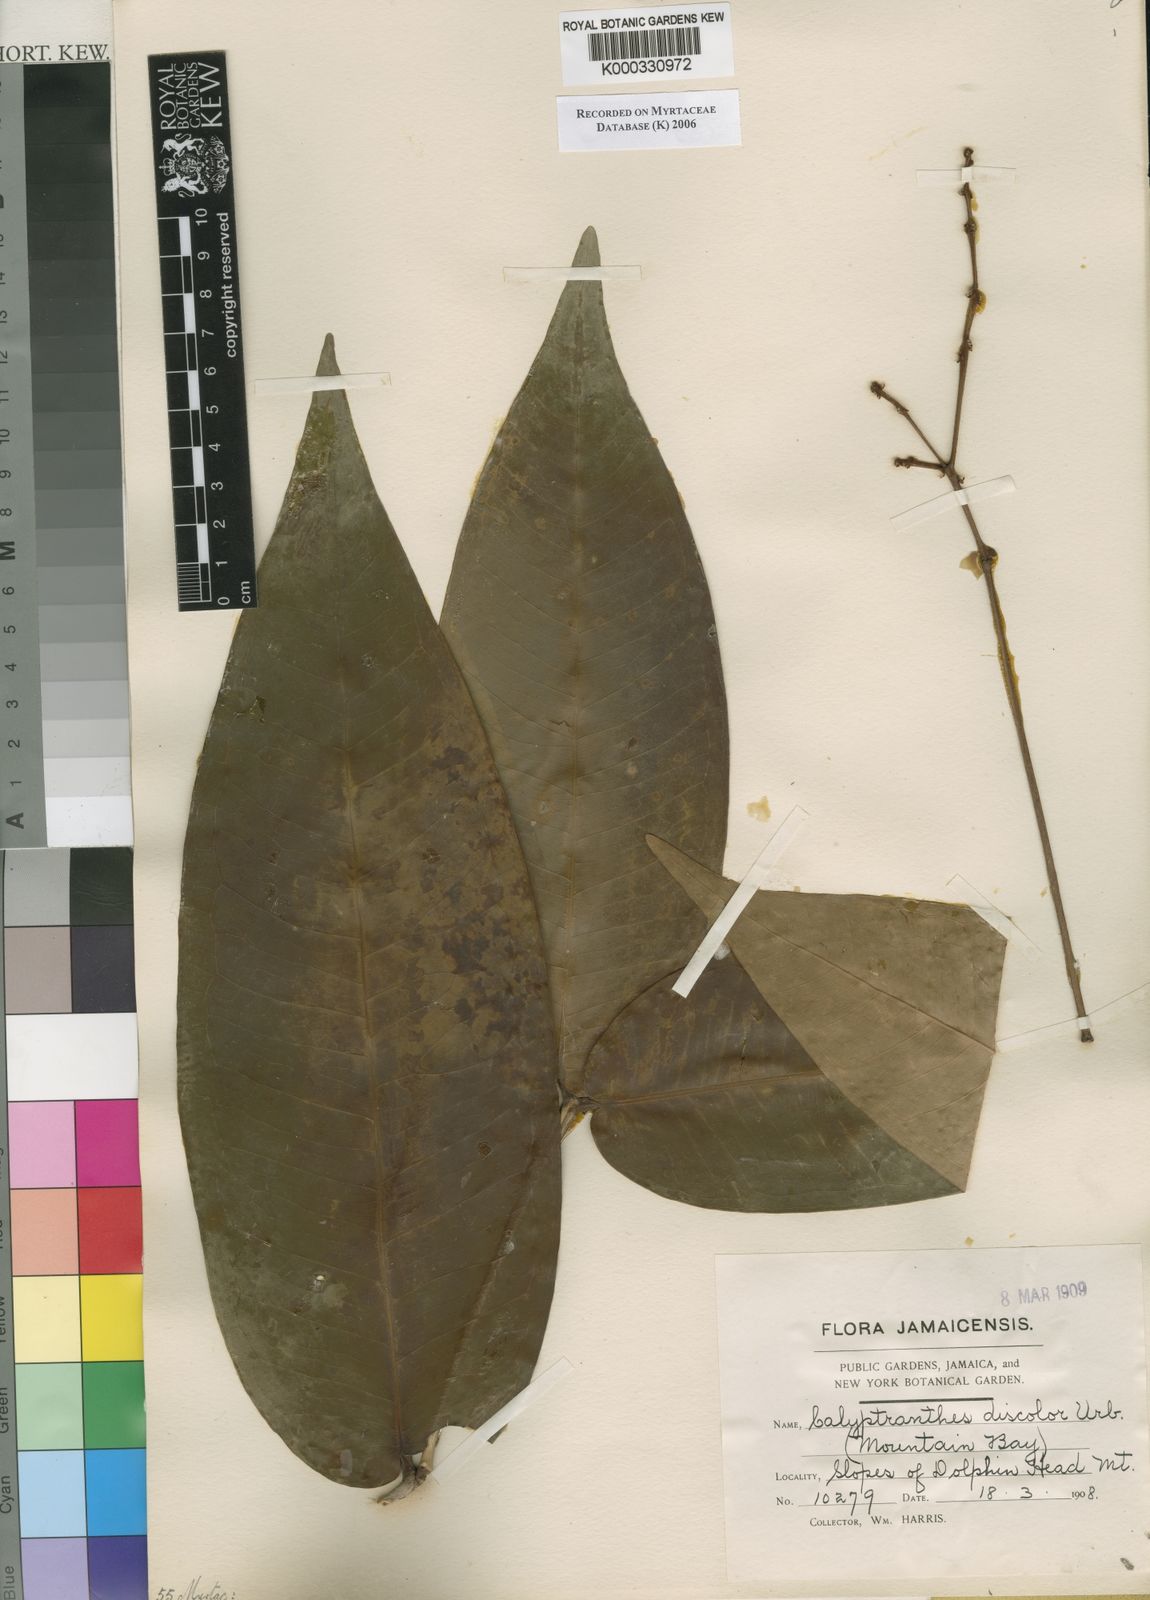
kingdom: Plantae
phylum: Tracheophyta
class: Magnoliopsida
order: Myrtales
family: Myrtaceae
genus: Myrcia
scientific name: Myrcia hanoverensis
